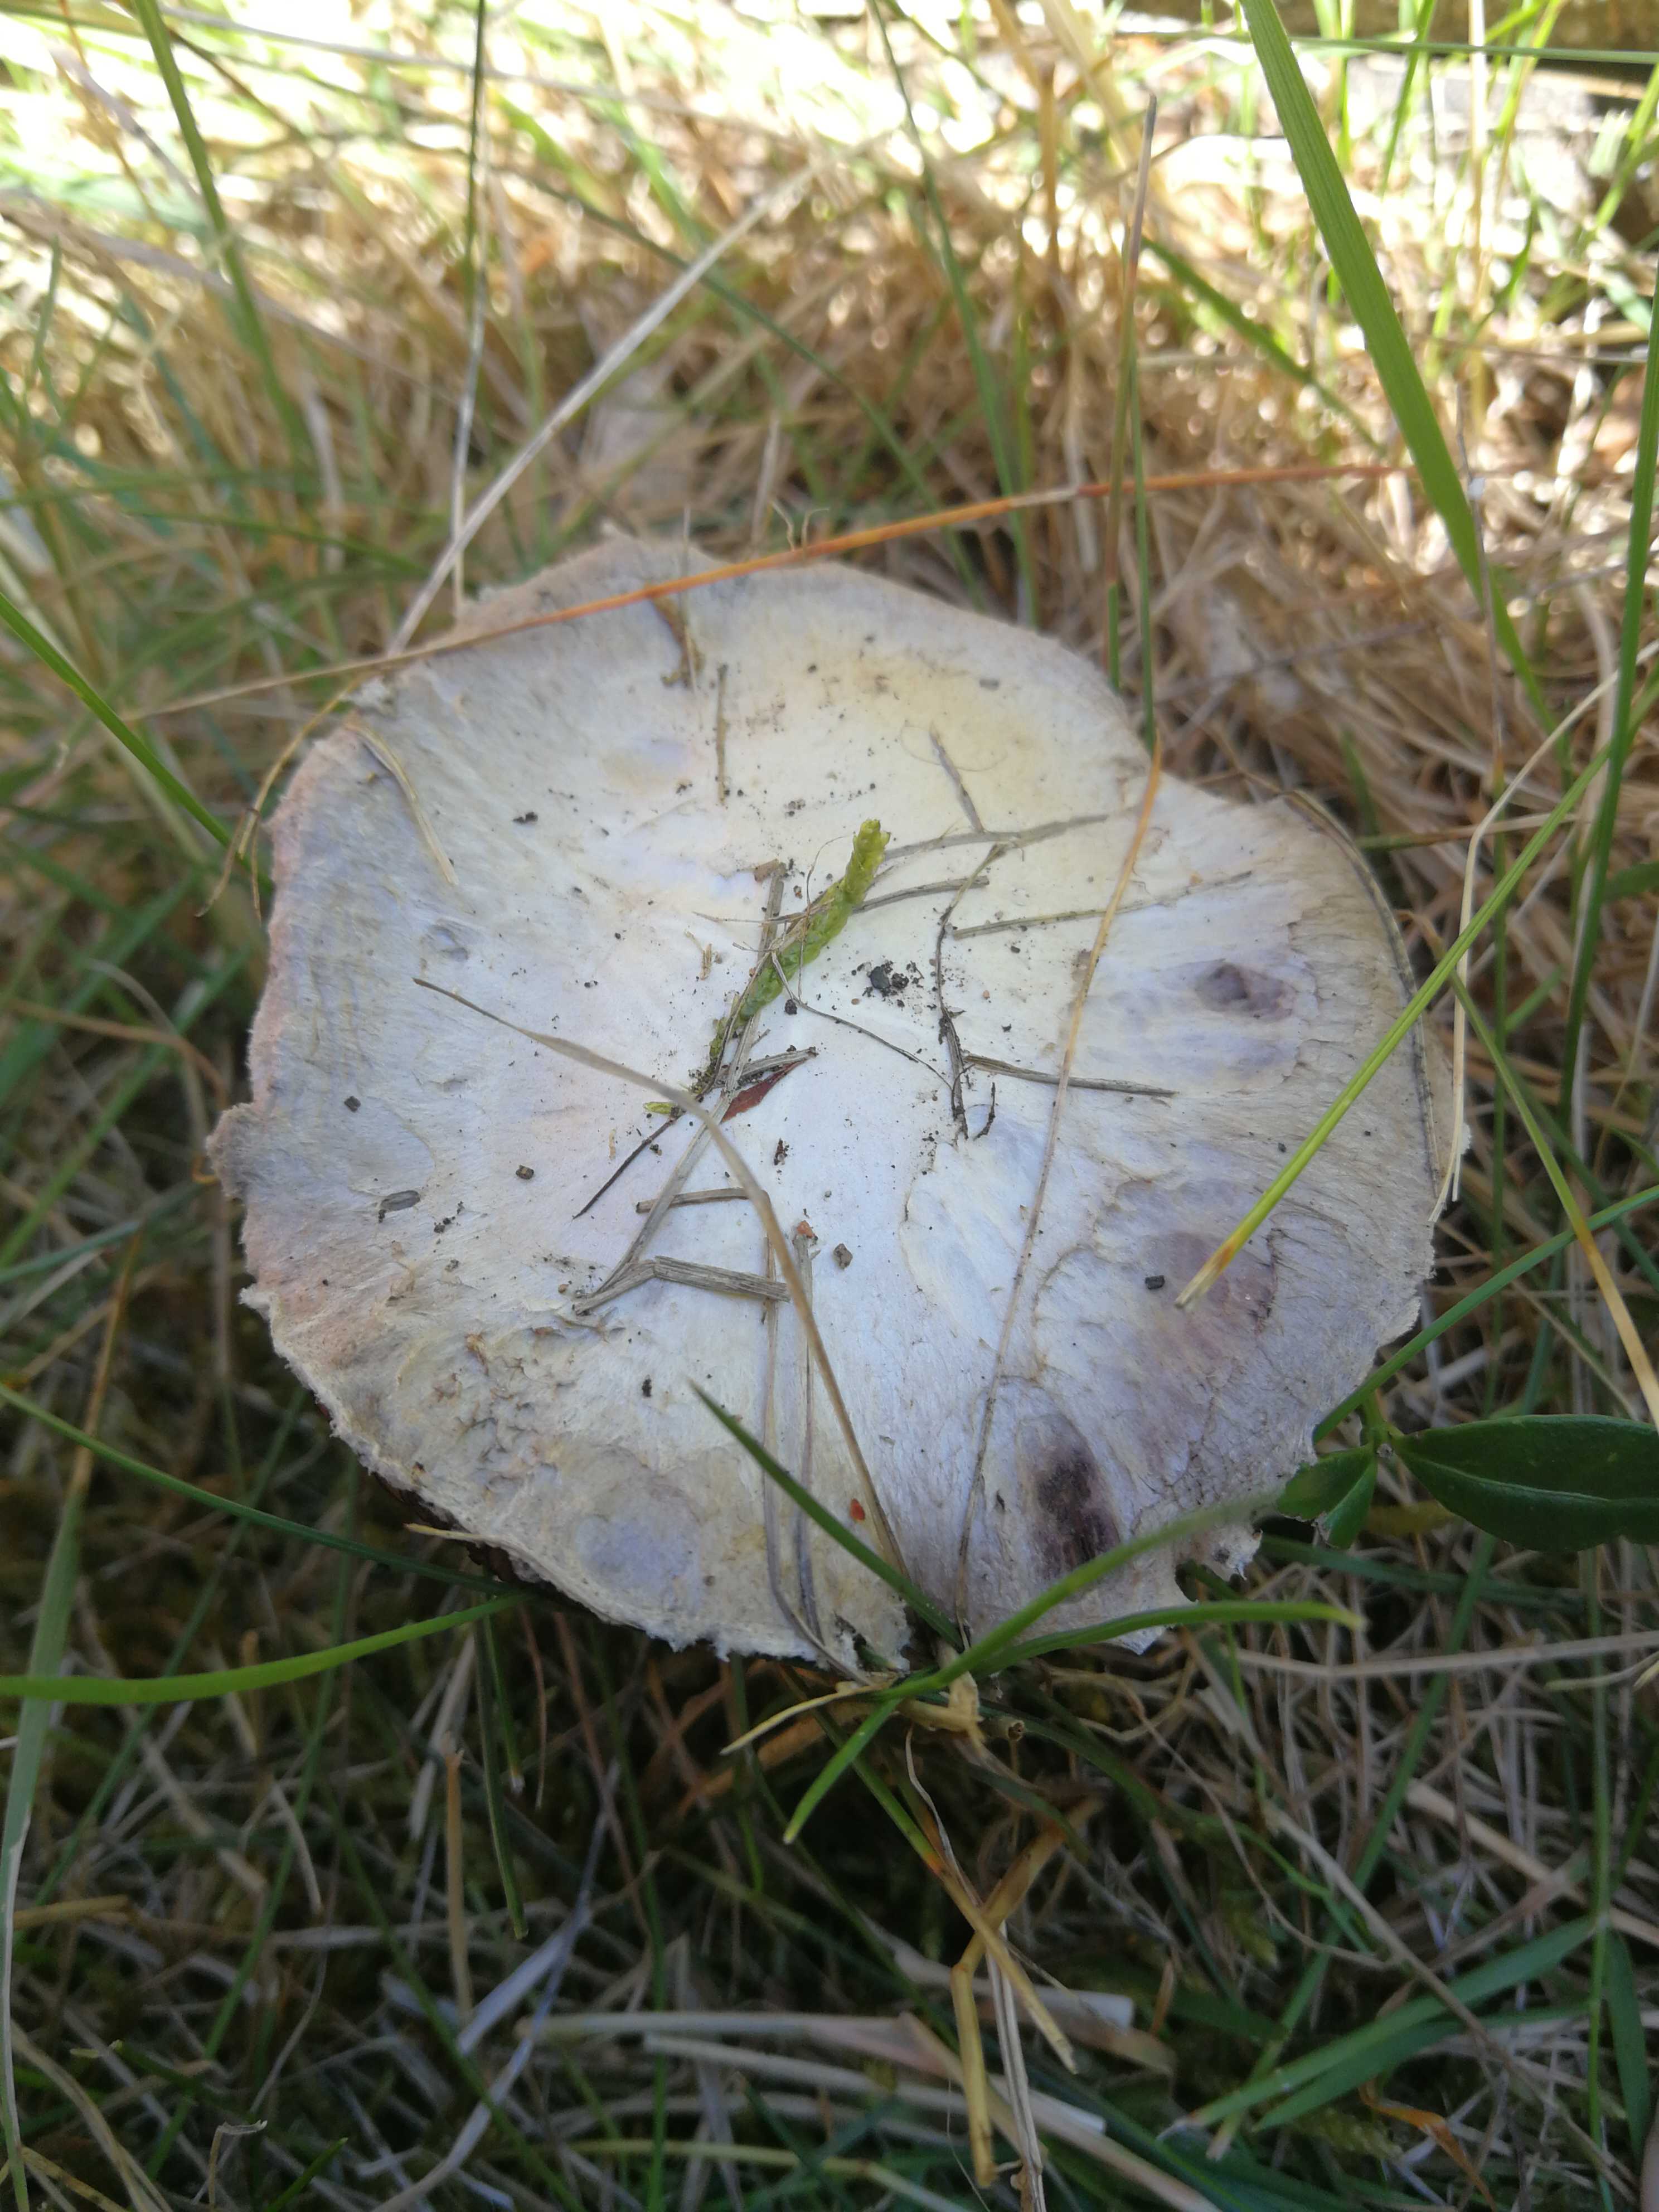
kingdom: Fungi
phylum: Basidiomycota
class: Agaricomycetes
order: Agaricales
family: Agaricaceae
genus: Agaricus
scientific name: Agaricus campestris
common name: mark-champignon
